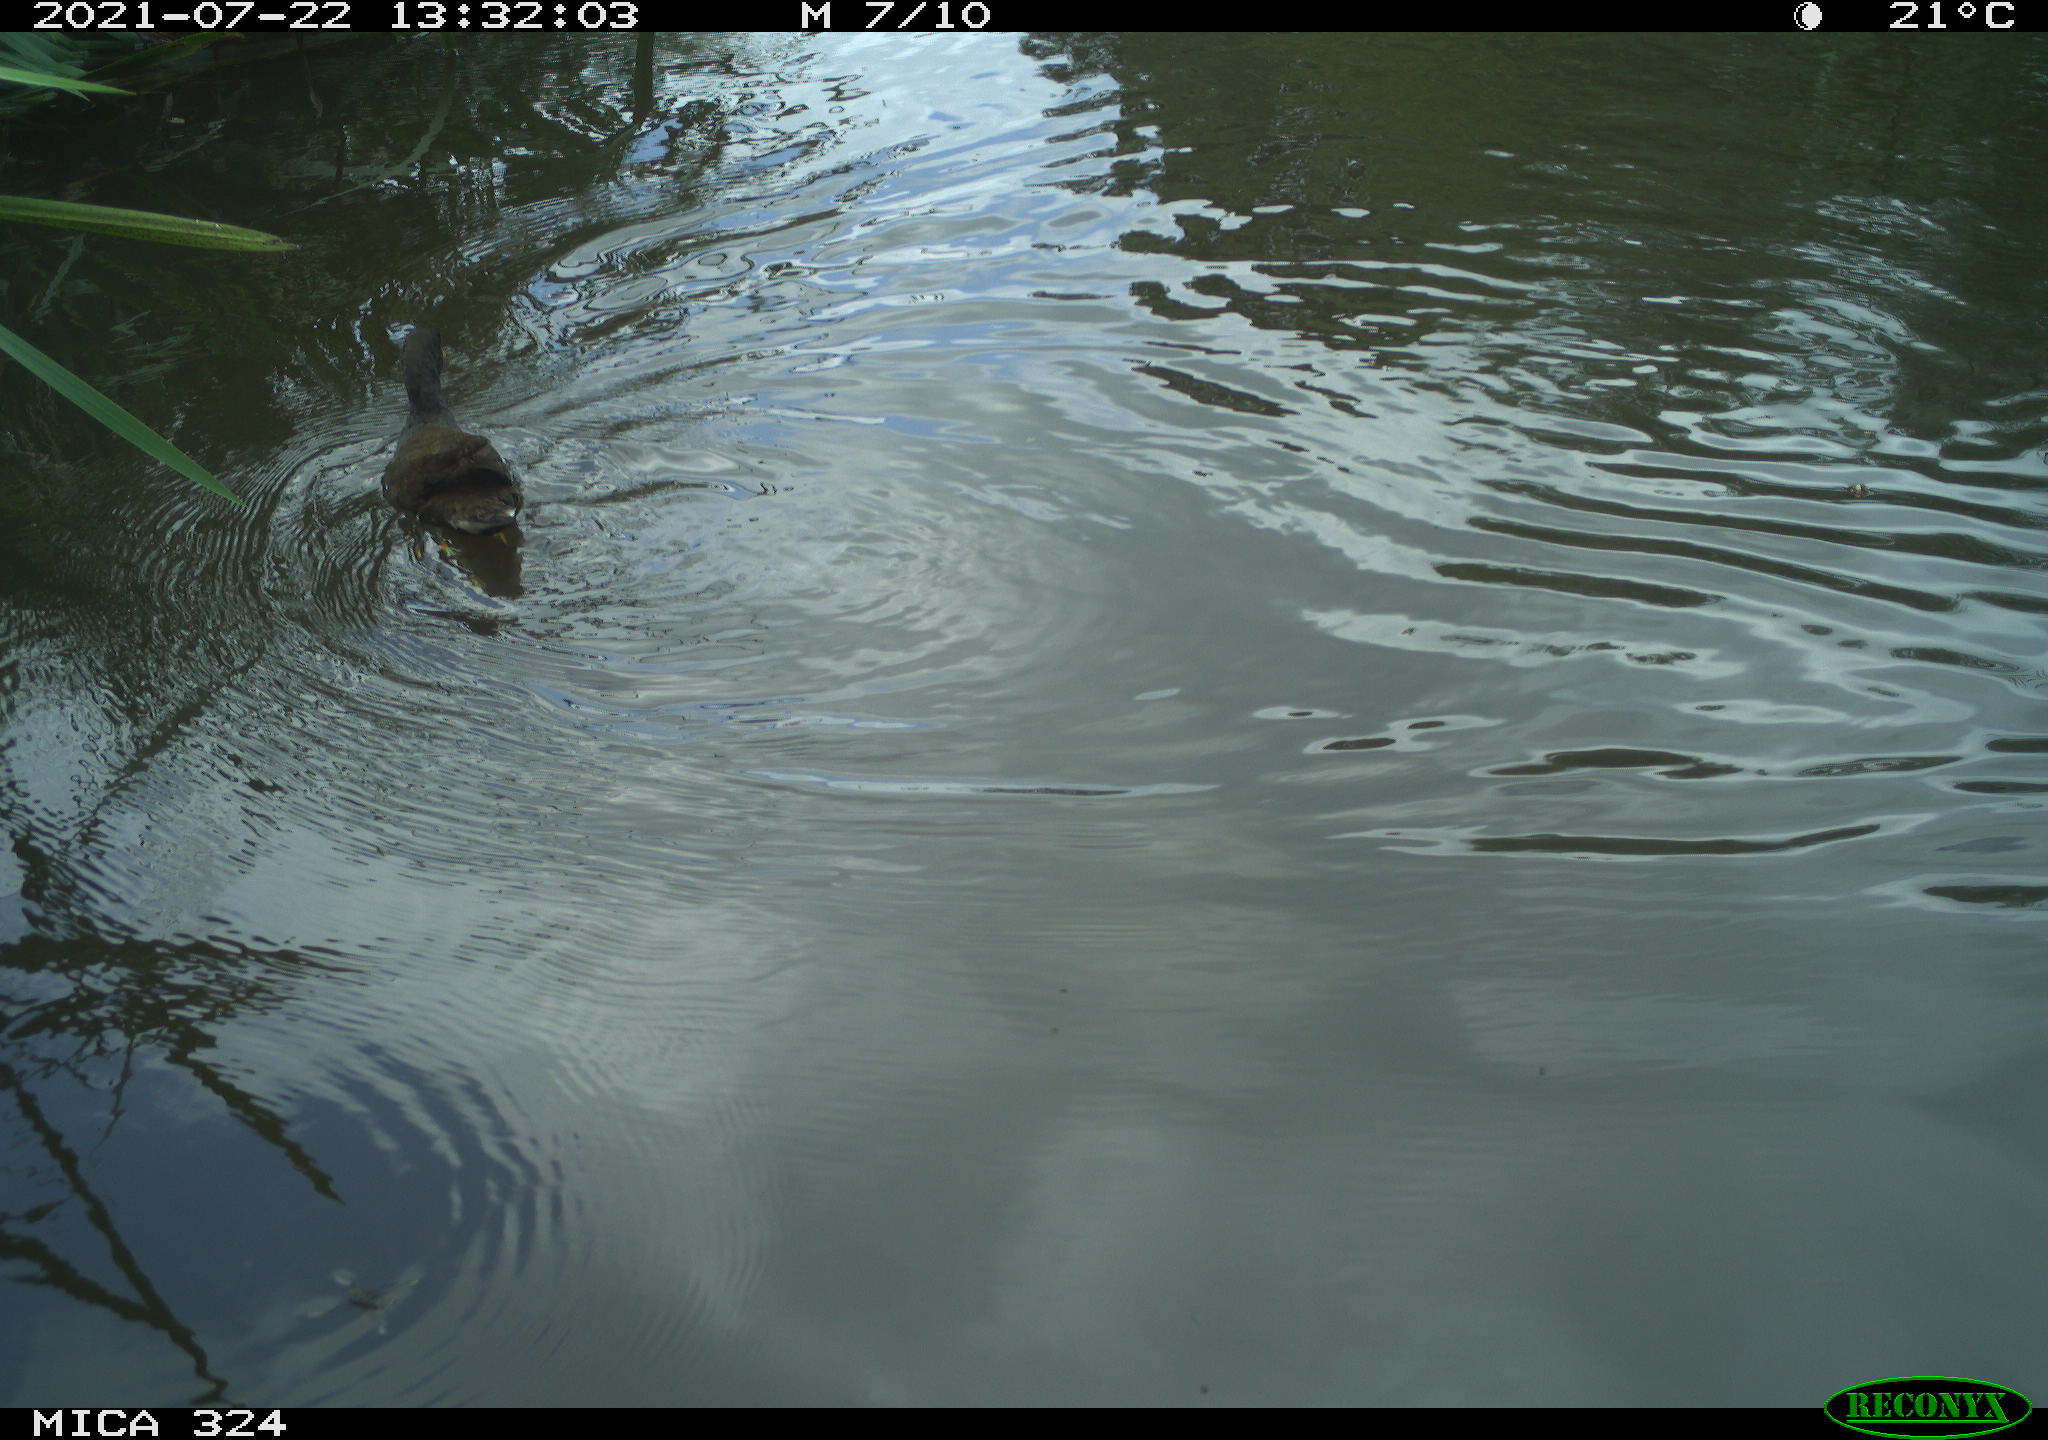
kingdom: Animalia
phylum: Chordata
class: Aves
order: Gruiformes
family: Rallidae
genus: Gallinula
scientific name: Gallinula chloropus
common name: Common moorhen
